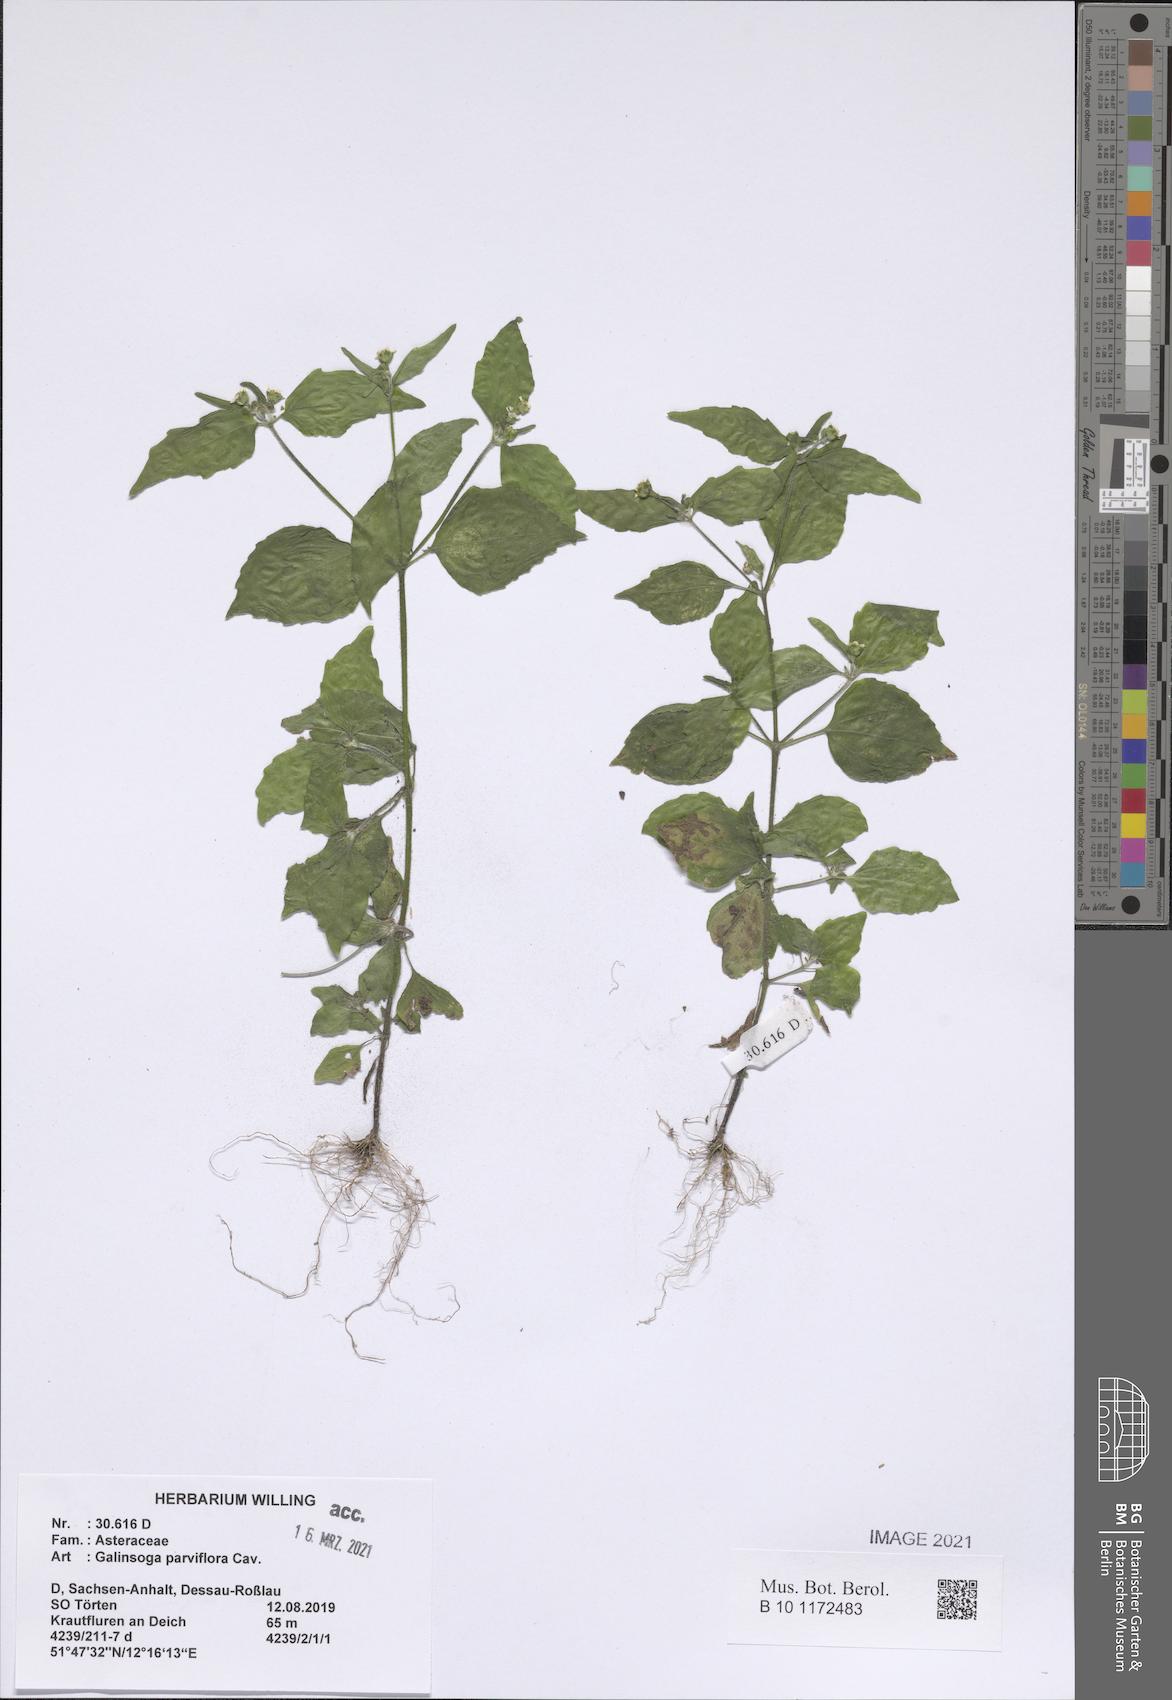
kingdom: Plantae
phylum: Tracheophyta
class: Magnoliopsida
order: Asterales
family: Asteraceae
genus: Galinsoga
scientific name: Galinsoga parviflora
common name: Gallant soldier
